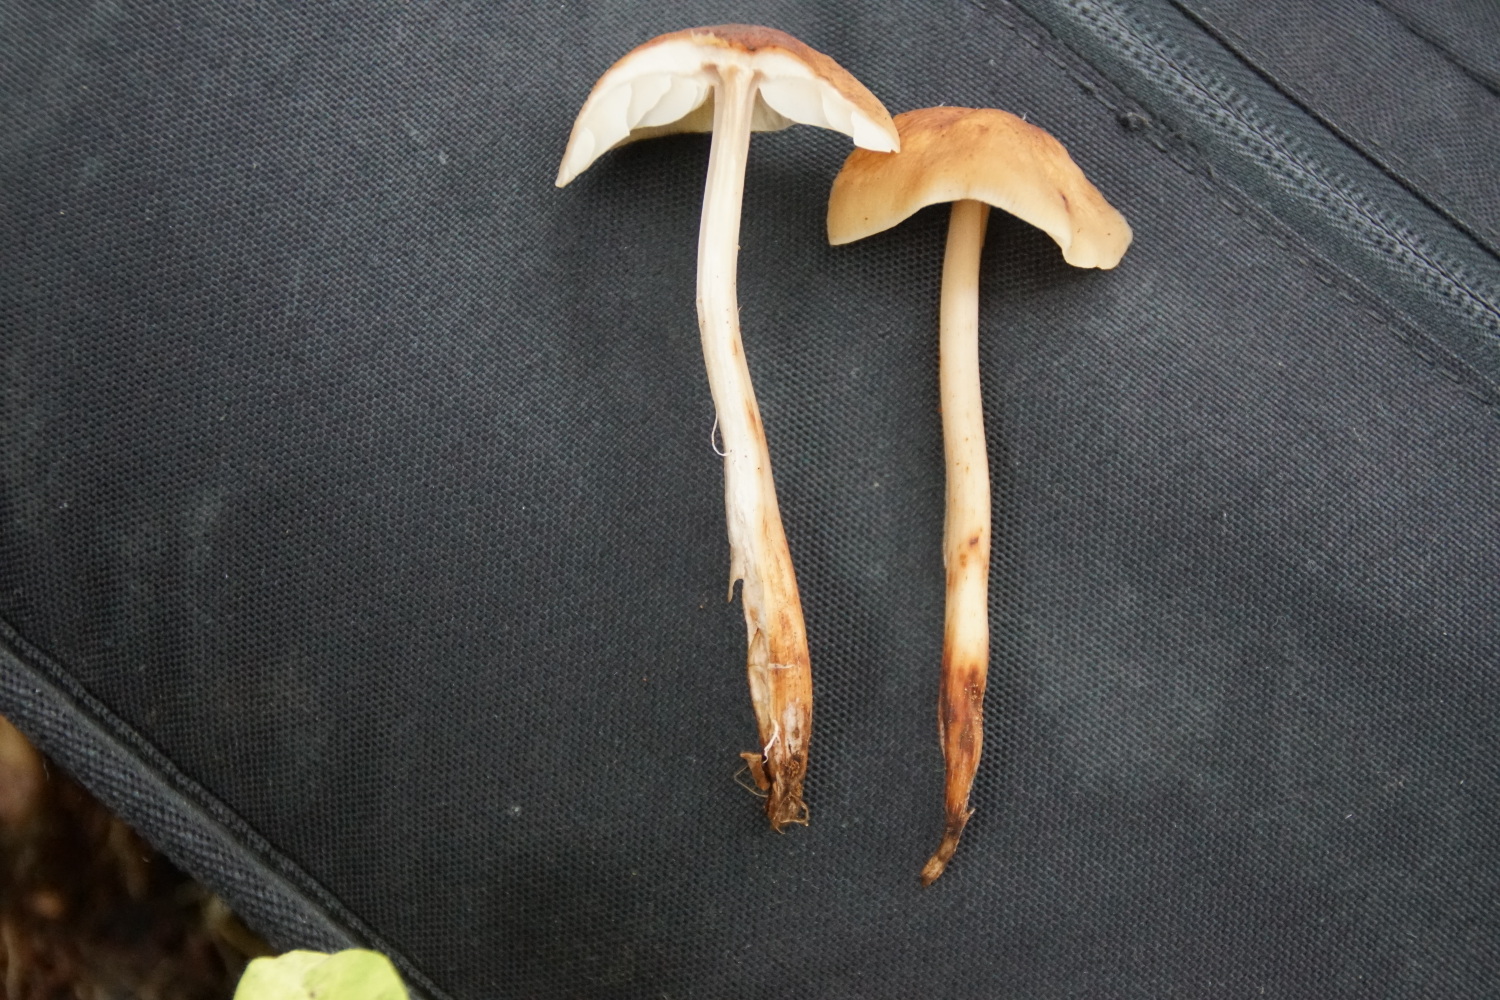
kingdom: Fungi
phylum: Basidiomycota
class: Agaricomycetes
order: Agaricales
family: Omphalotaceae
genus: Gymnopus
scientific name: Gymnopus fusipes
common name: tenstokket fladhat
